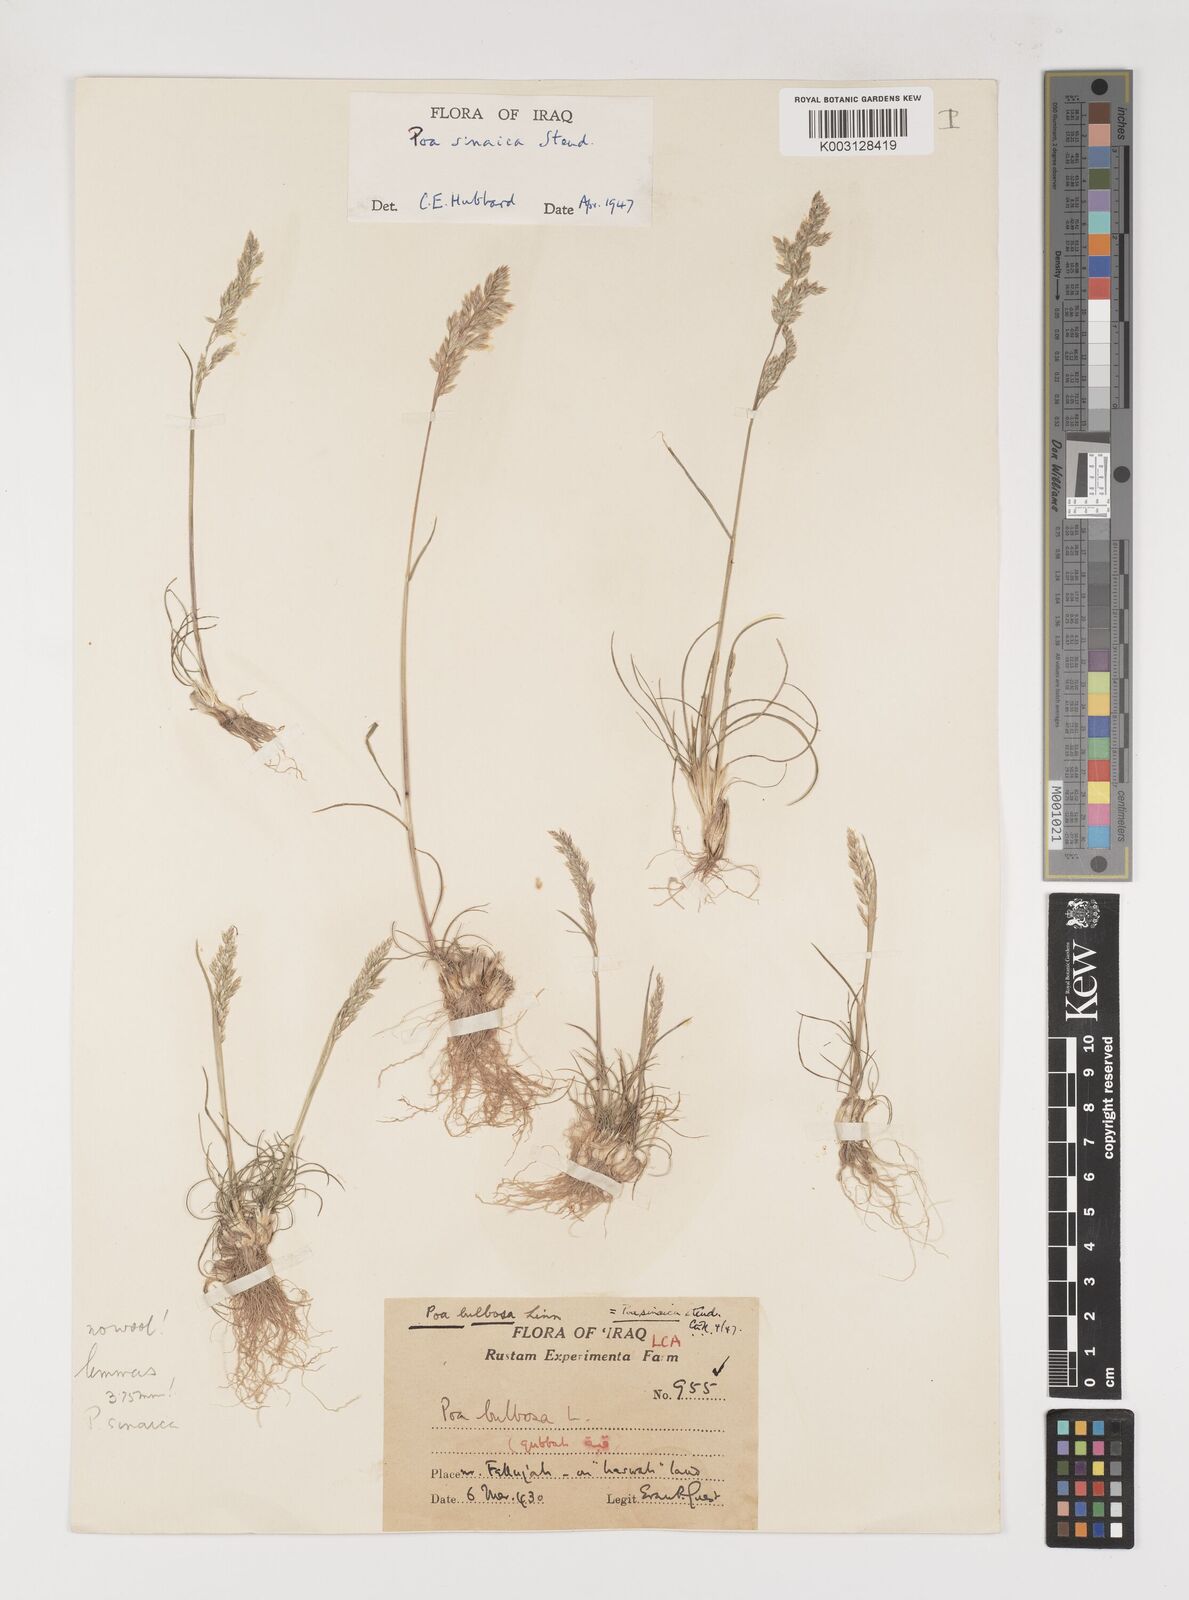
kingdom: Plantae
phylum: Tracheophyta
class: Liliopsida
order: Poales
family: Poaceae
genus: Poa
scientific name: Poa sinaica
